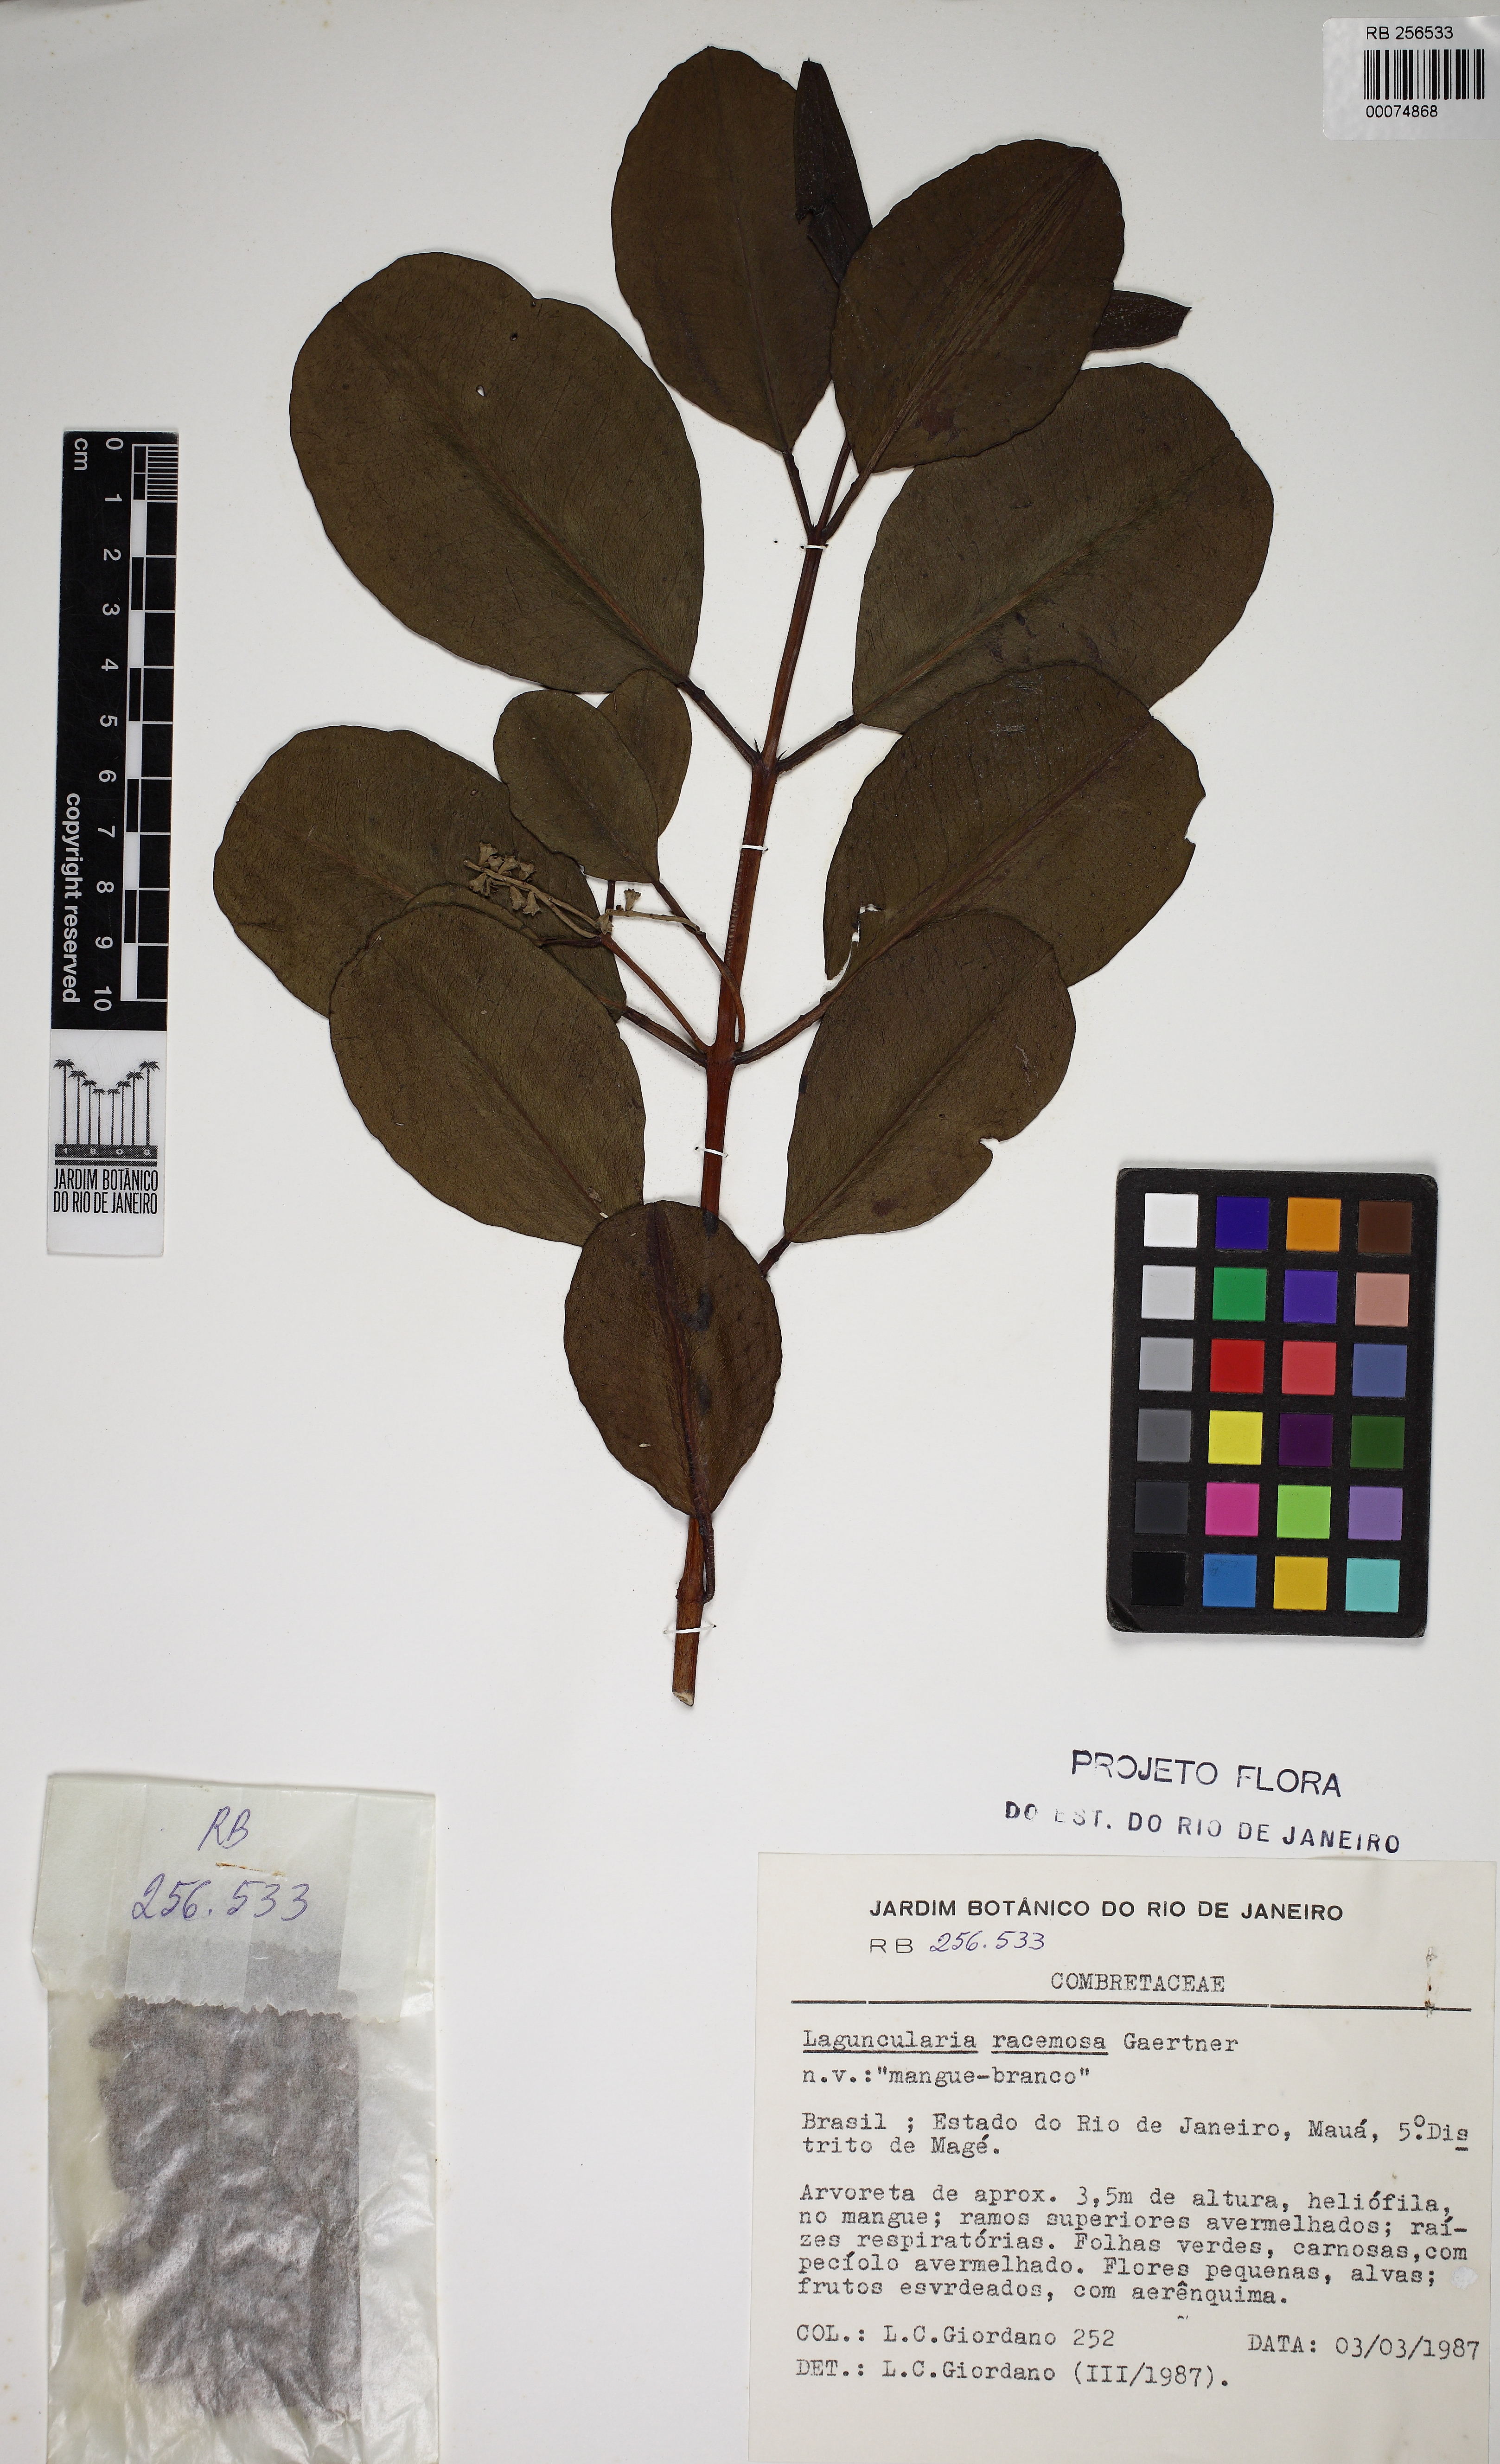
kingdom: Plantae
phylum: Tracheophyta
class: Magnoliopsida
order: Myrtales
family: Combretaceae
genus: Laguncularia
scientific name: Laguncularia racemosa
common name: White mangrove
